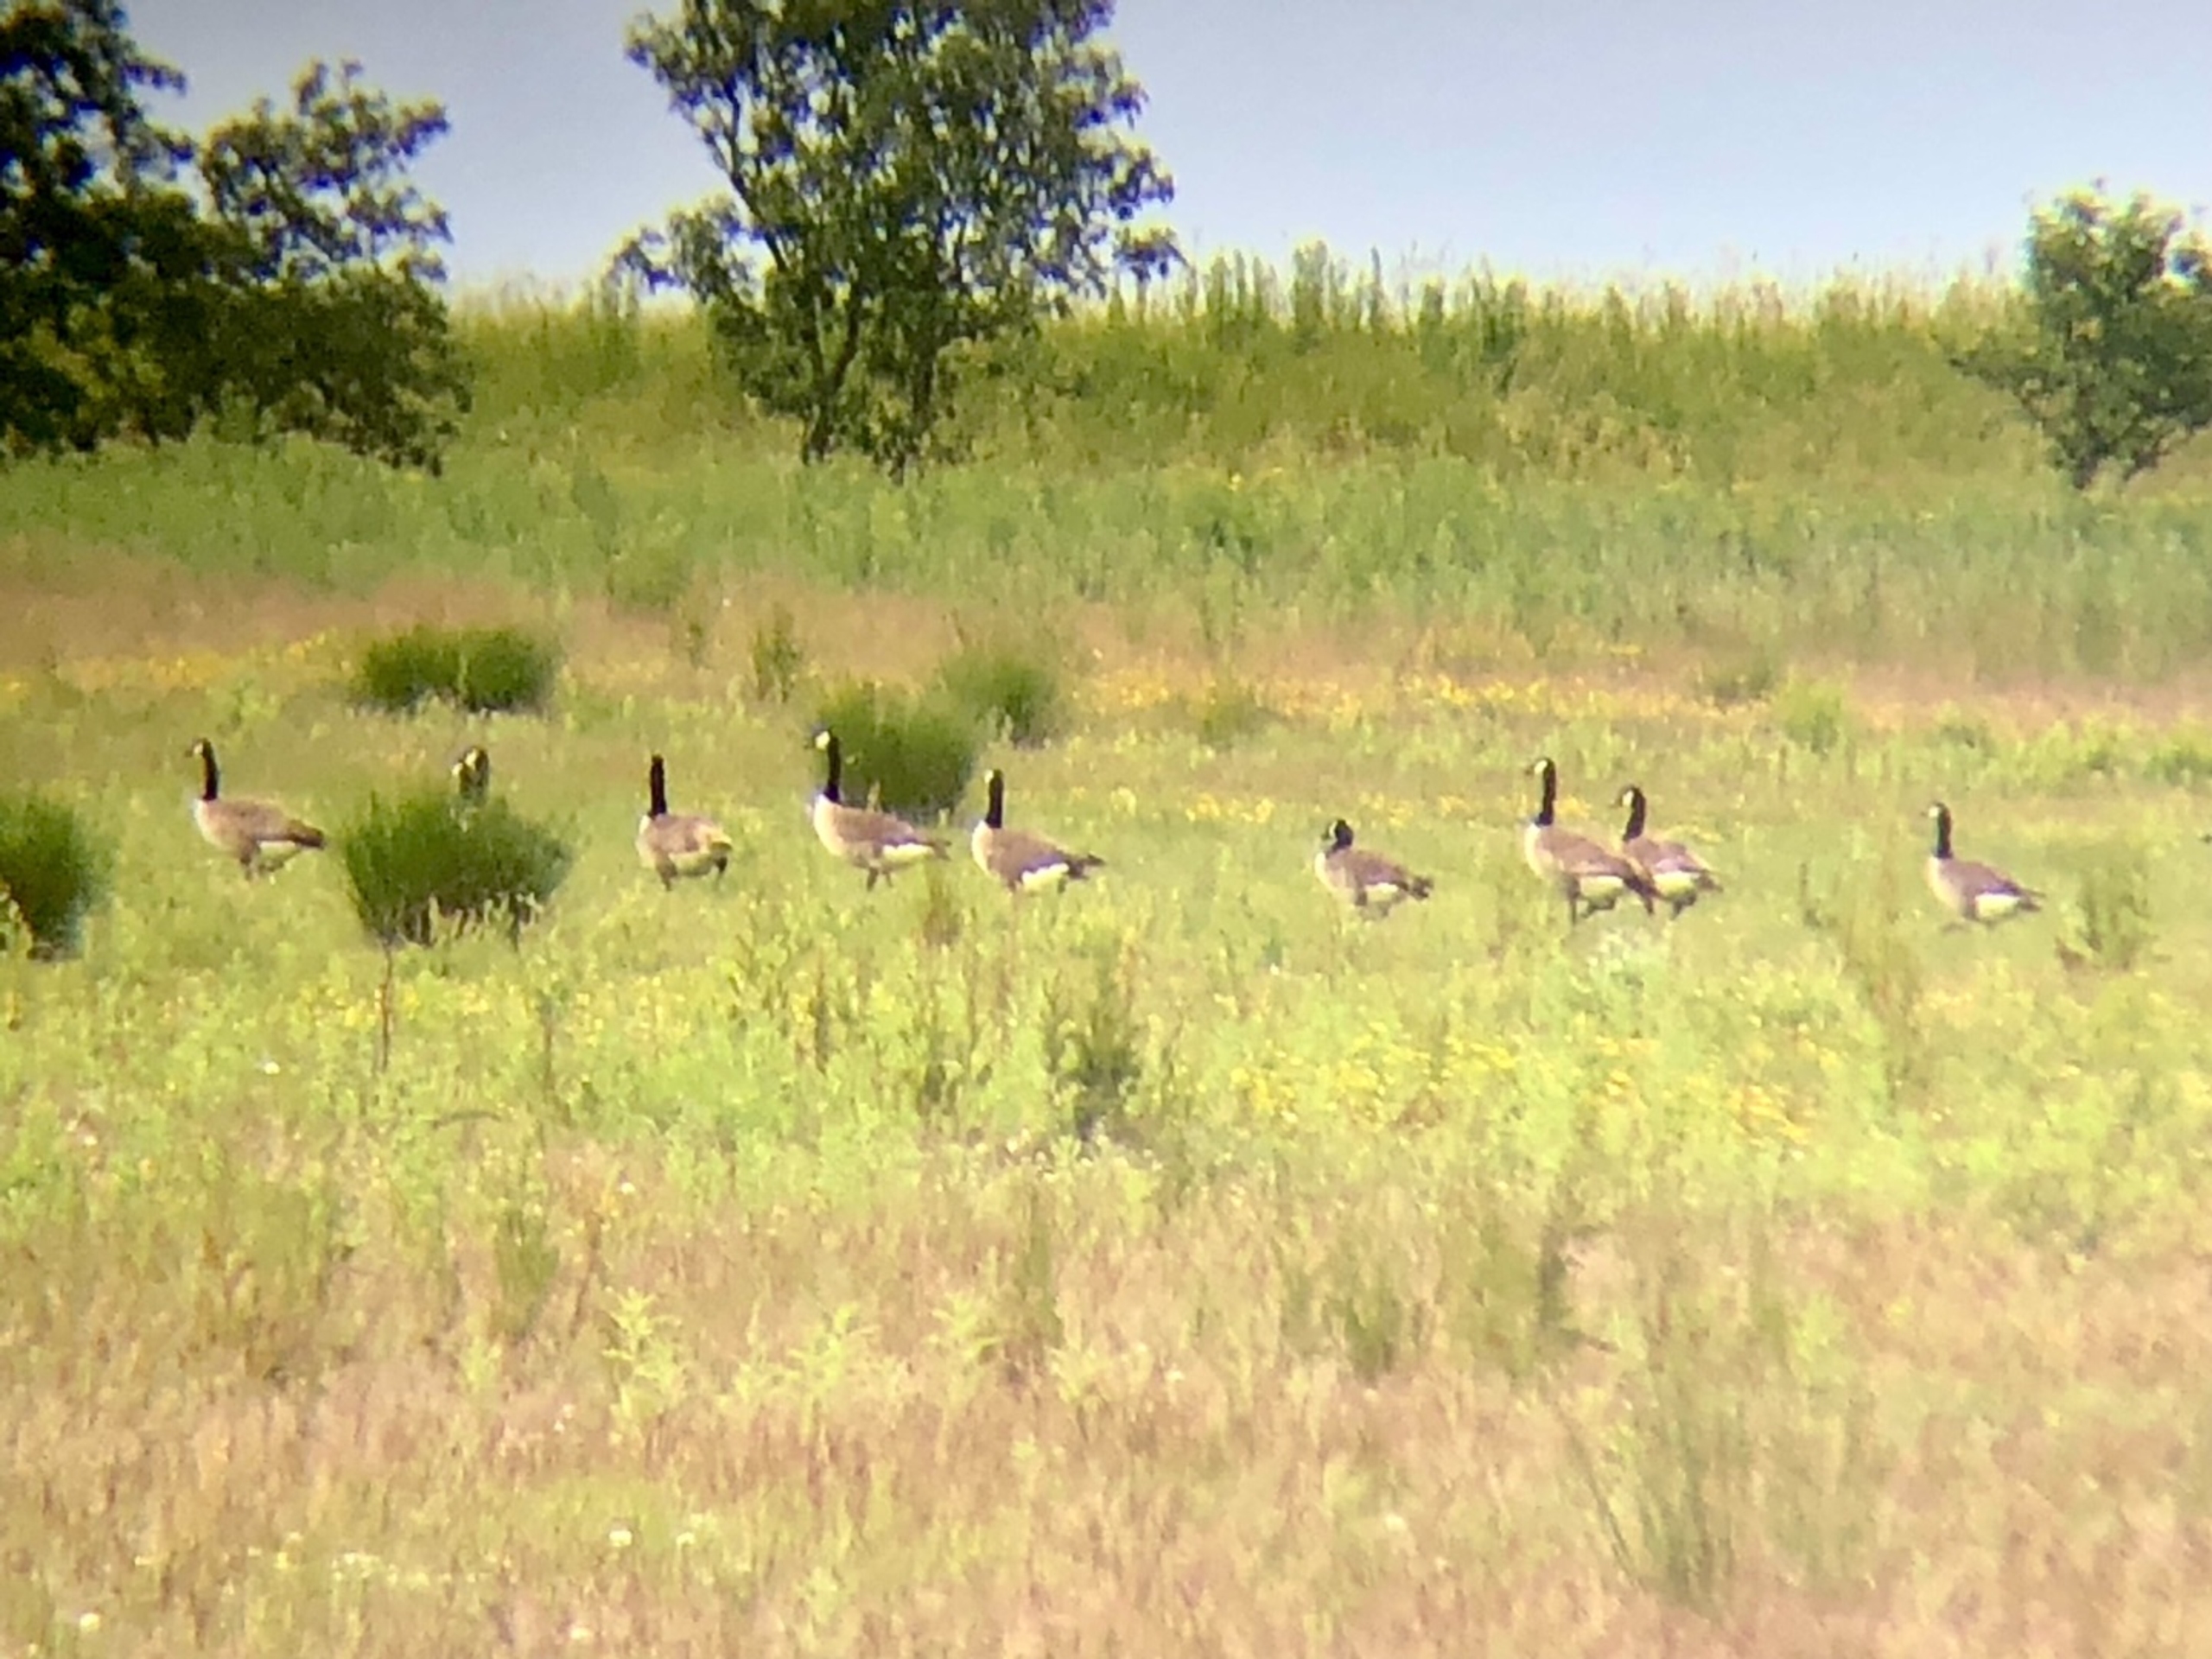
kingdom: Animalia
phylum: Chordata
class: Aves
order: Anseriformes
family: Anatidae
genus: Branta
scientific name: Branta canadensis
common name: Canadagås
